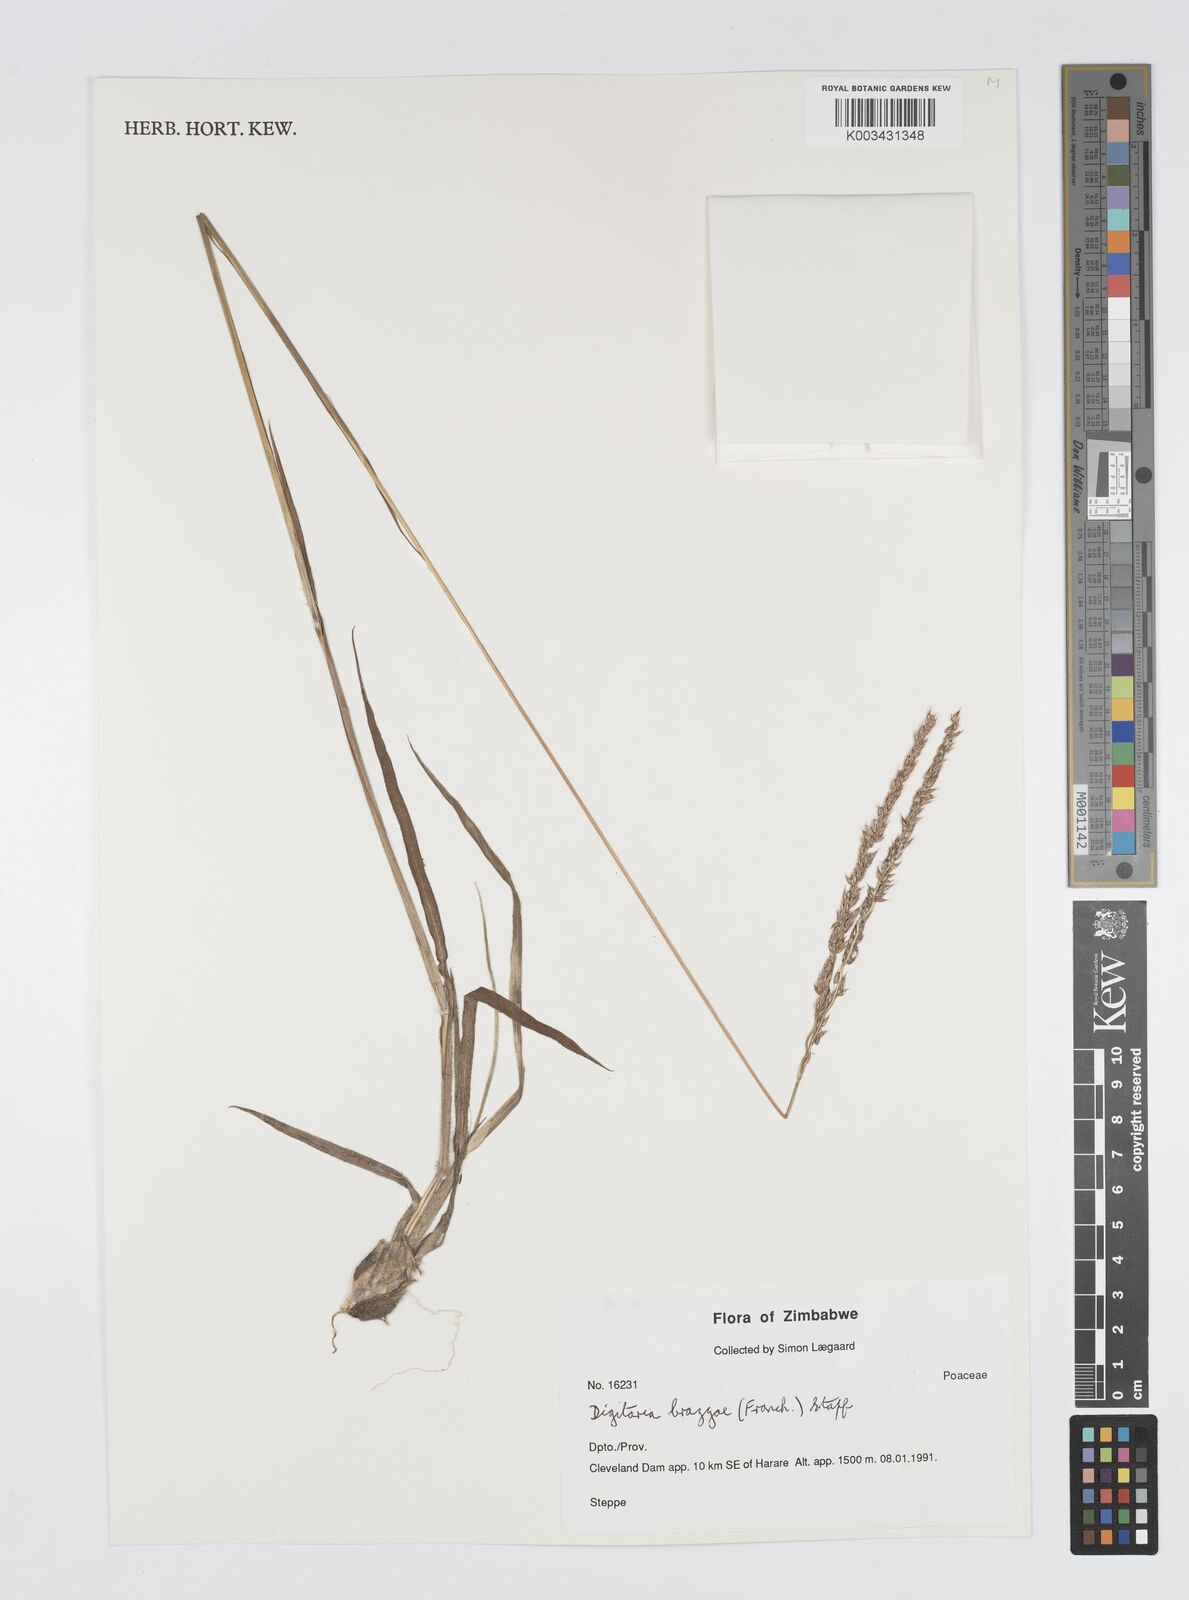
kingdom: Plantae
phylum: Tracheophyta
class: Liliopsida
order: Poales
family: Poaceae
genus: Digitaria
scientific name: Digitaria brazzae
